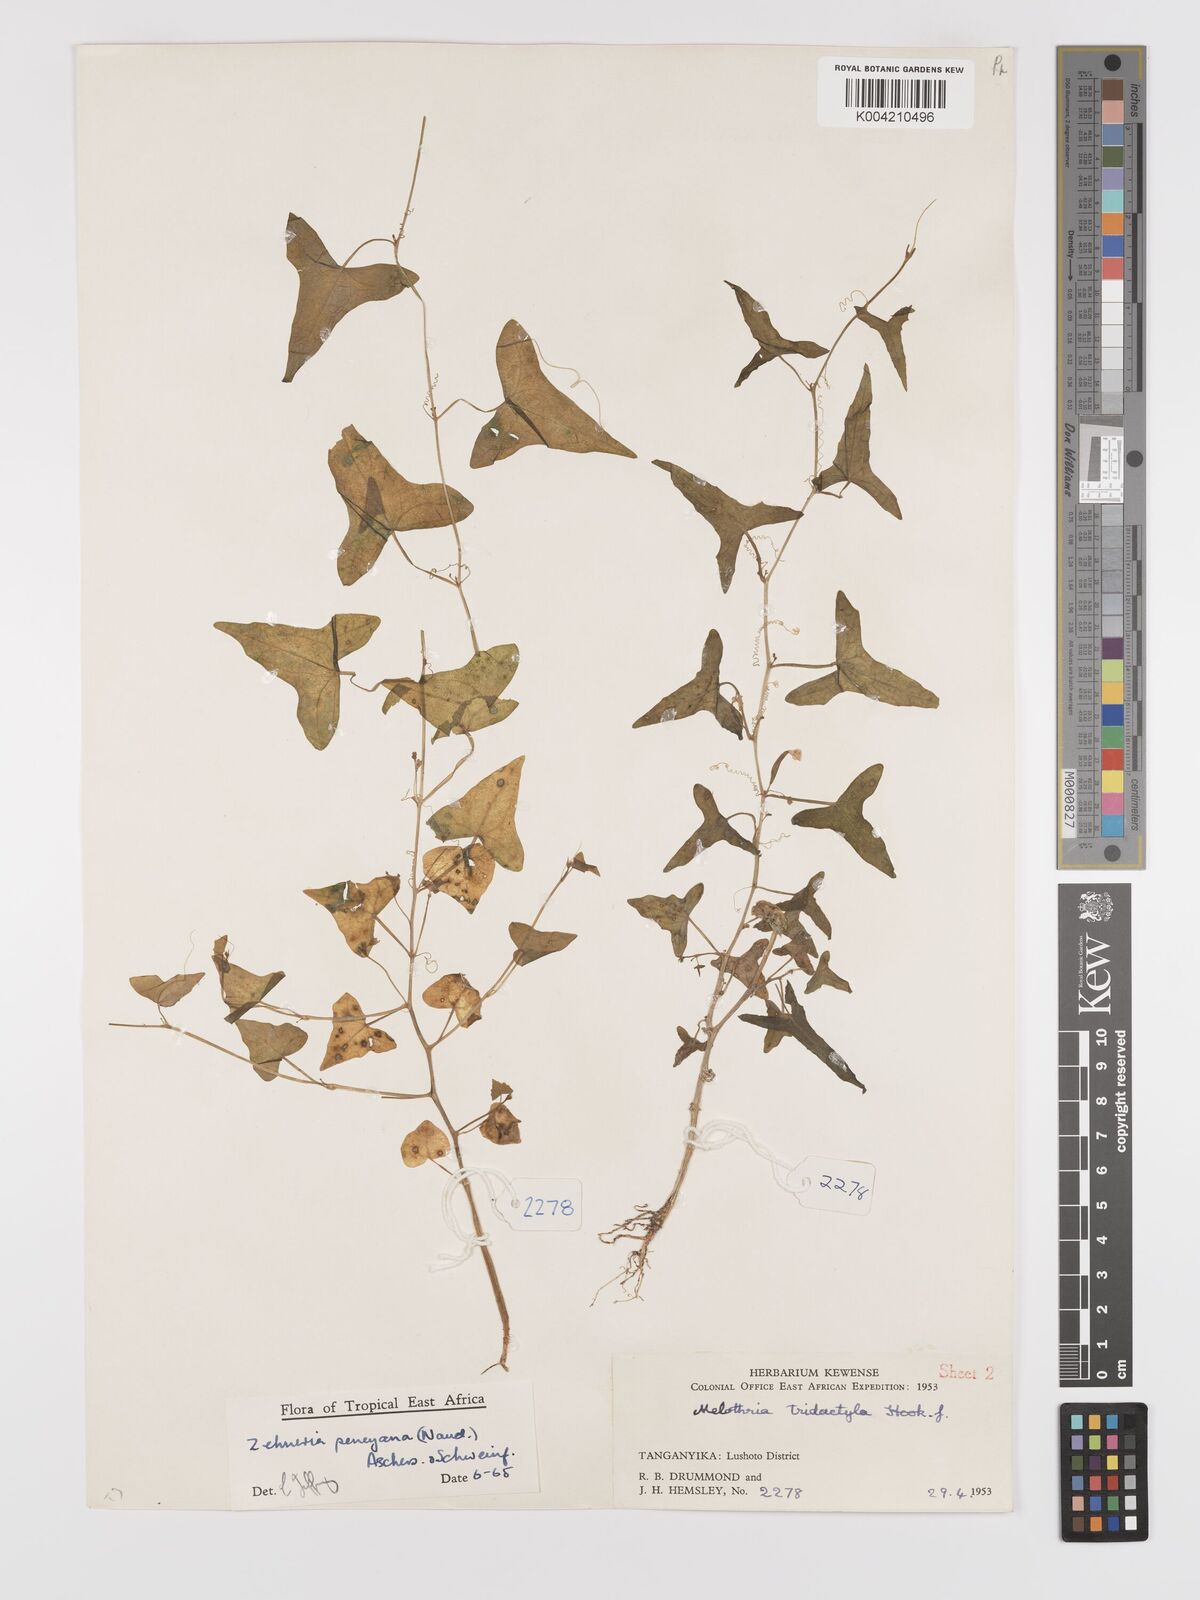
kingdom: Plantae
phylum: Tracheophyta
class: Magnoliopsida
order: Cucurbitales
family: Cucurbitaceae
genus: Zehneria
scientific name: Zehneria peneyana
